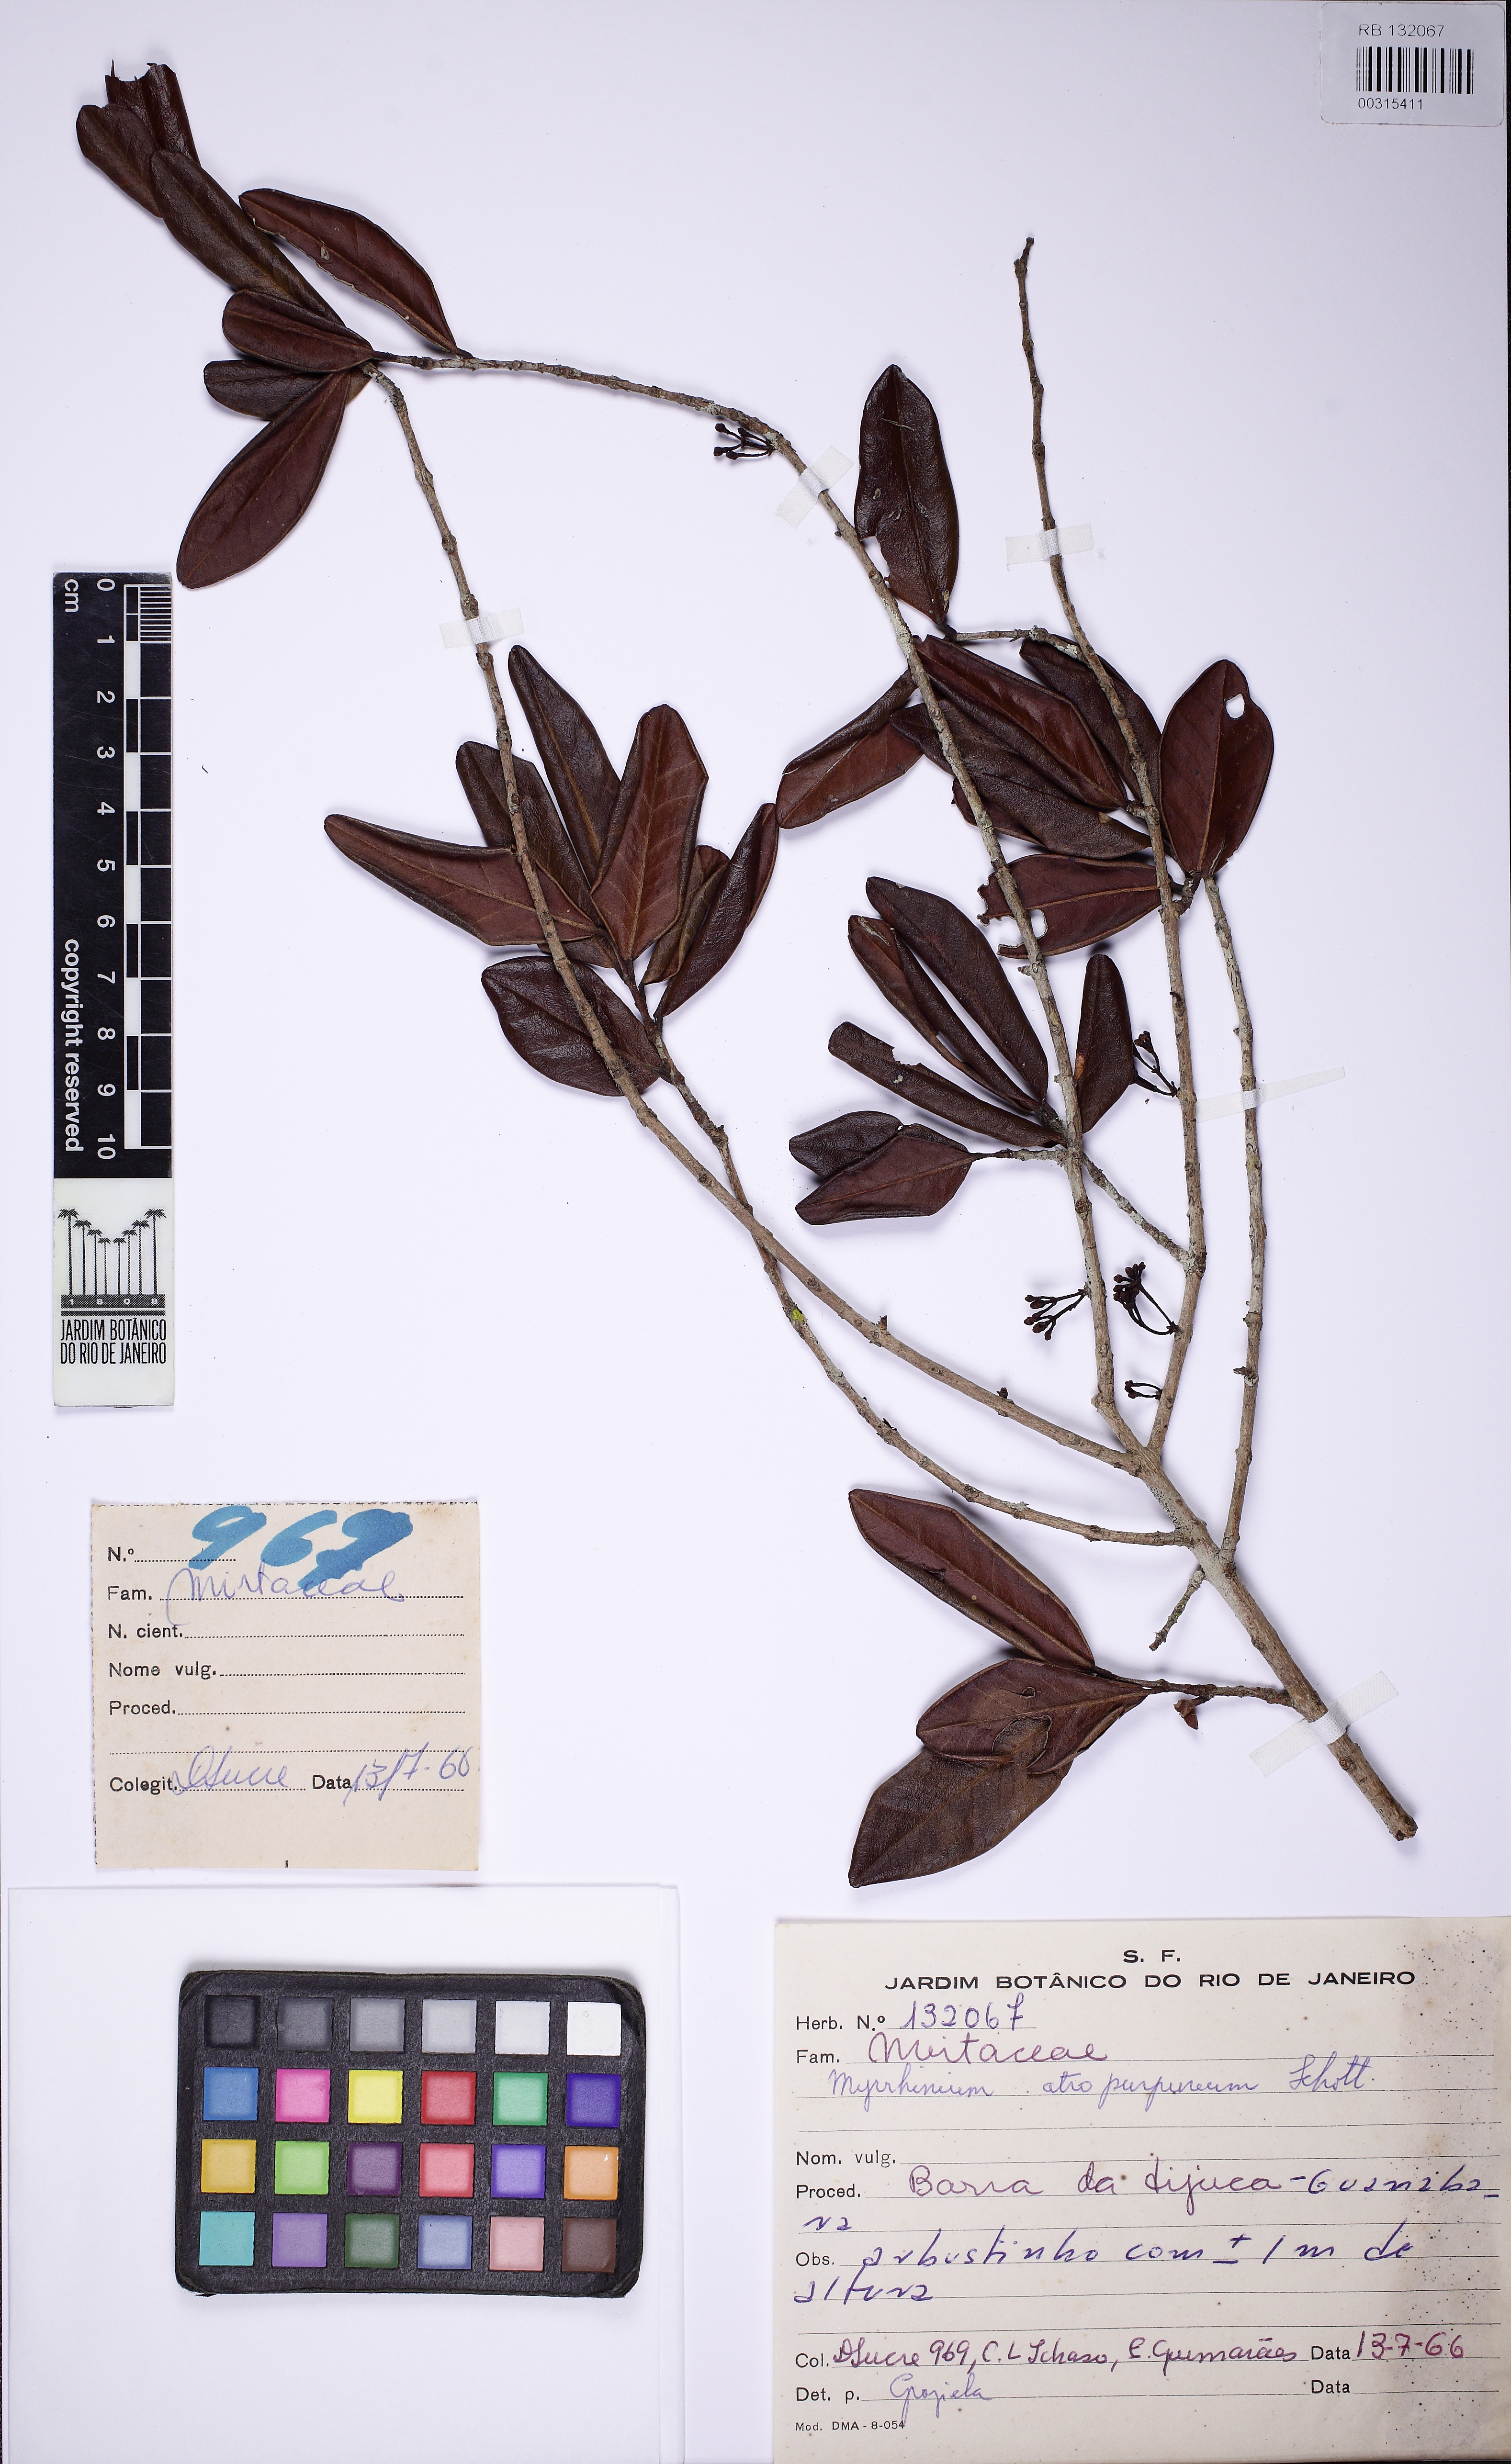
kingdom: Plantae
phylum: Tracheophyta
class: Magnoliopsida
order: Myrtales
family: Myrtaceae
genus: Myrrhinium
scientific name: Myrrhinium atropurpureum
